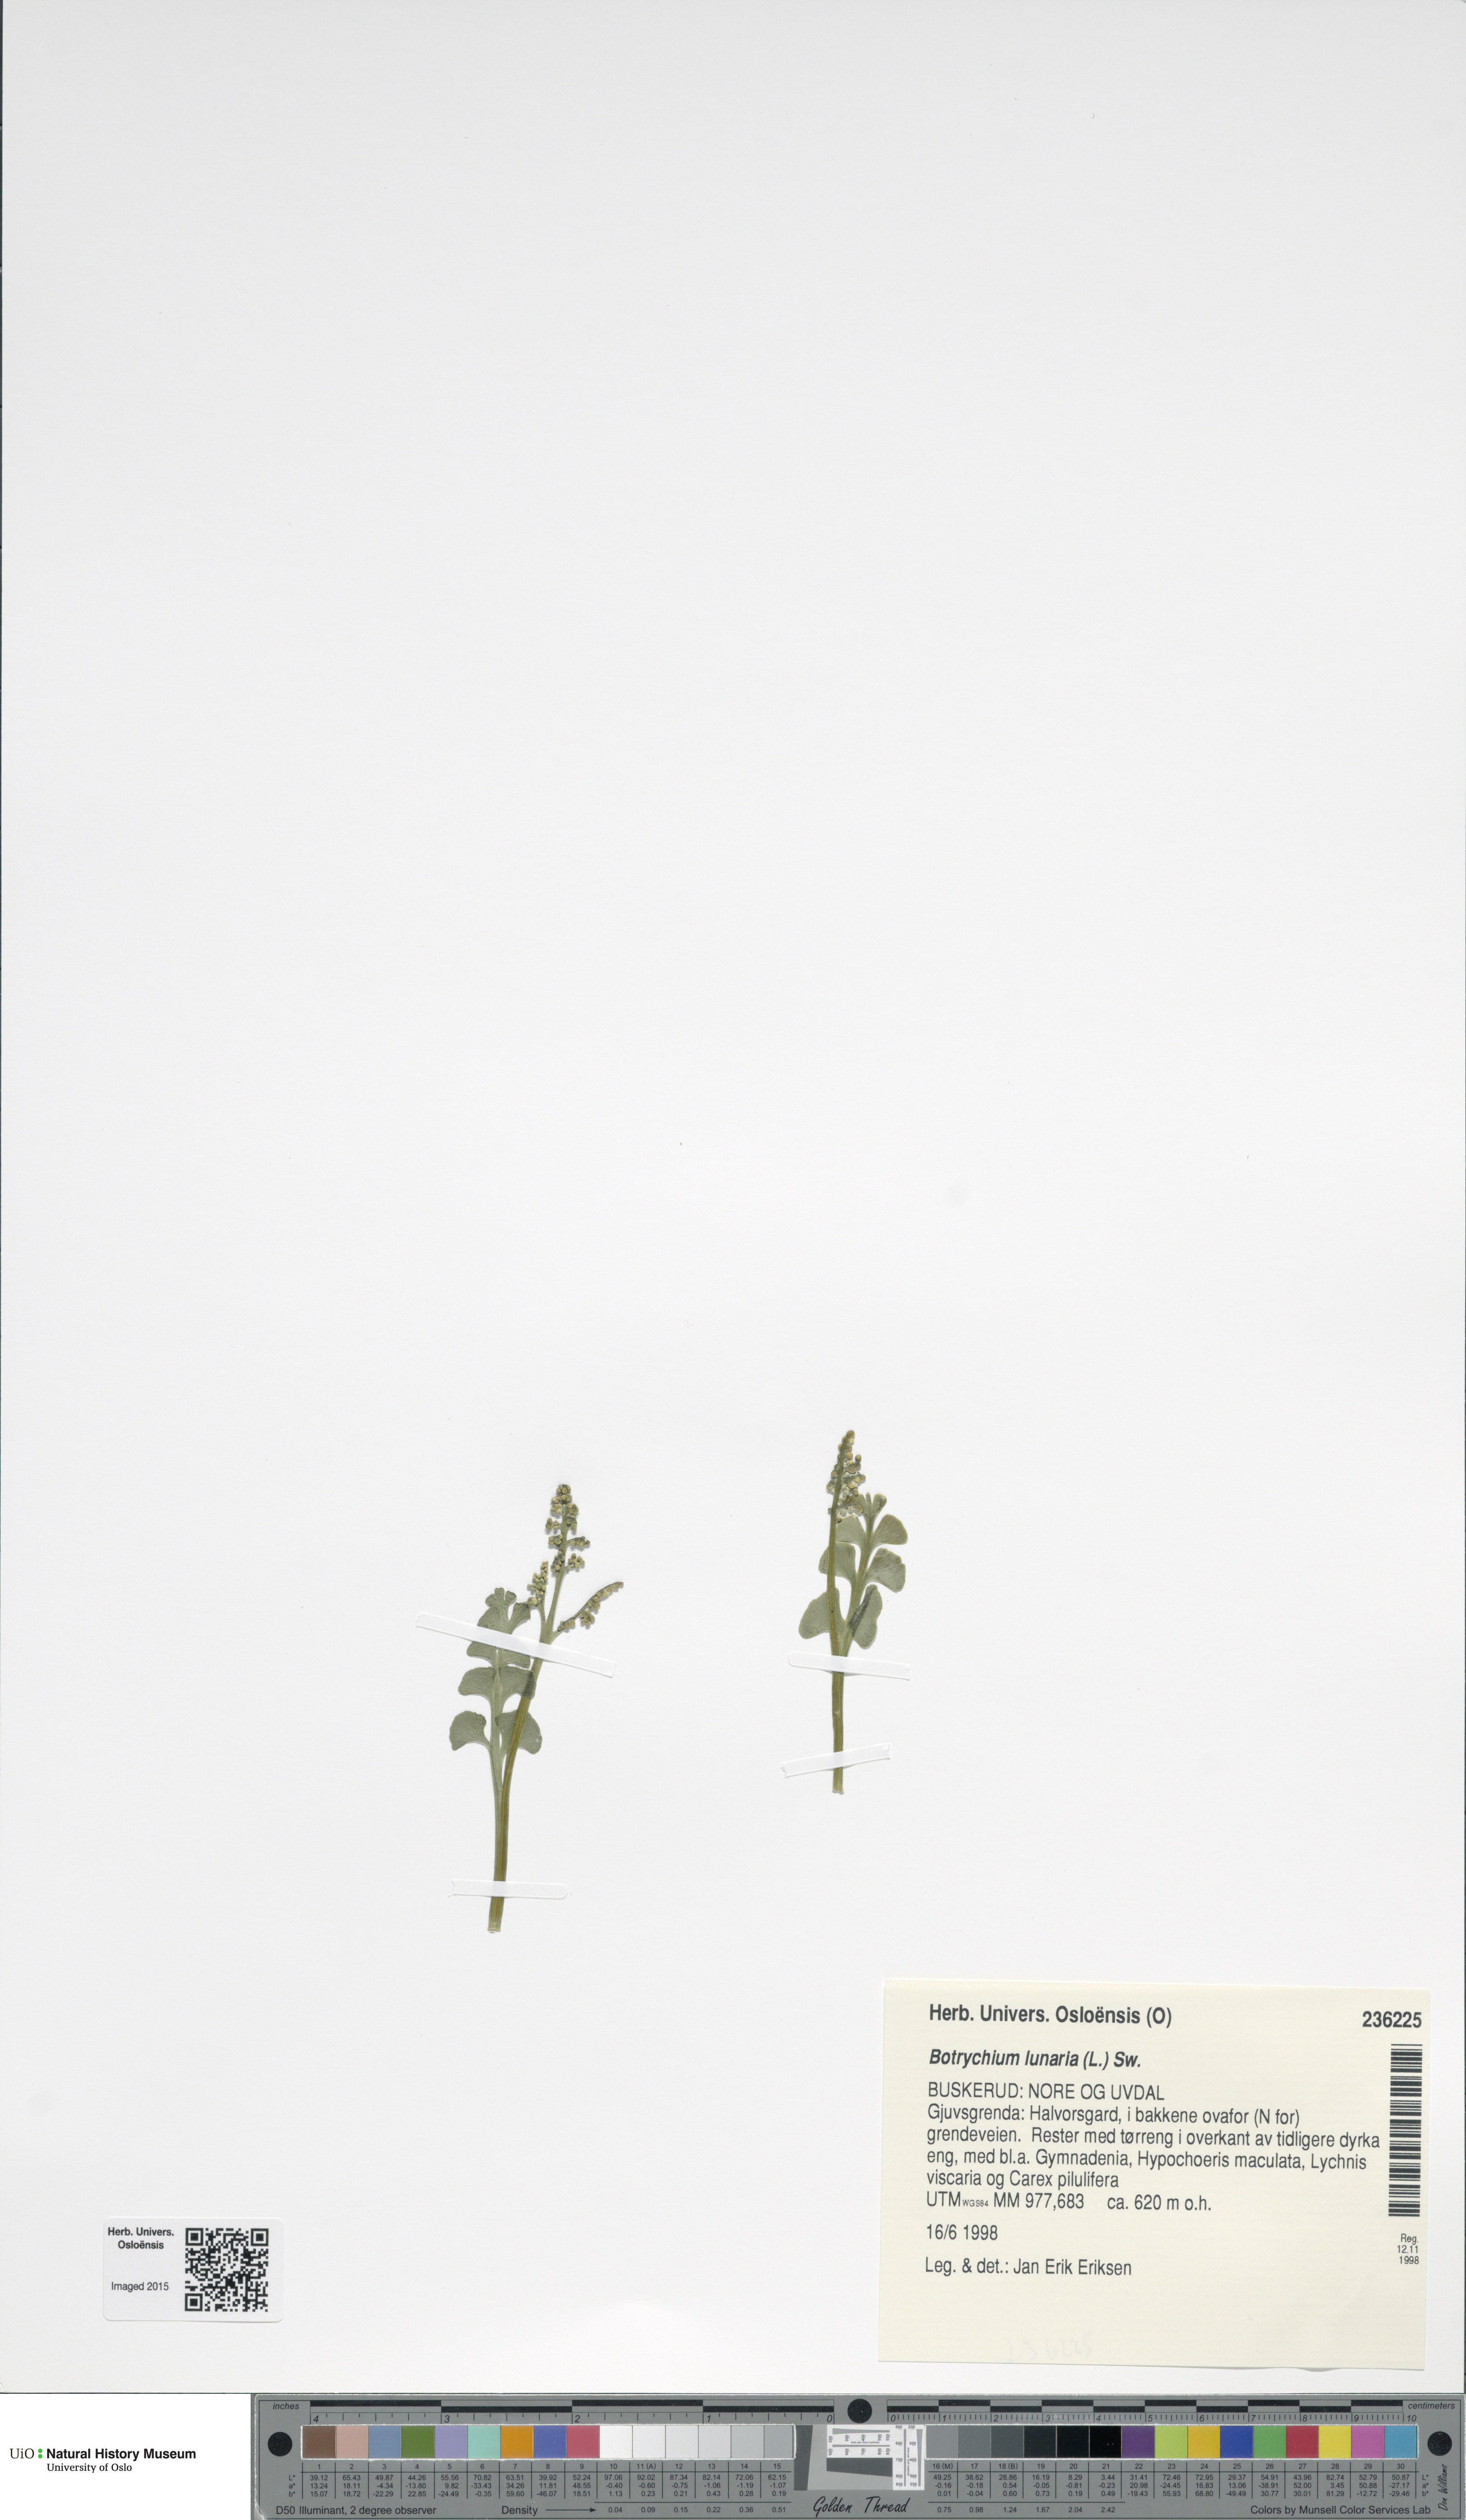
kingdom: Plantae
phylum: Tracheophyta
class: Polypodiopsida
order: Ophioglossales
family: Ophioglossaceae
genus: Botrychium
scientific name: Botrychium lunaria
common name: Moonwort
